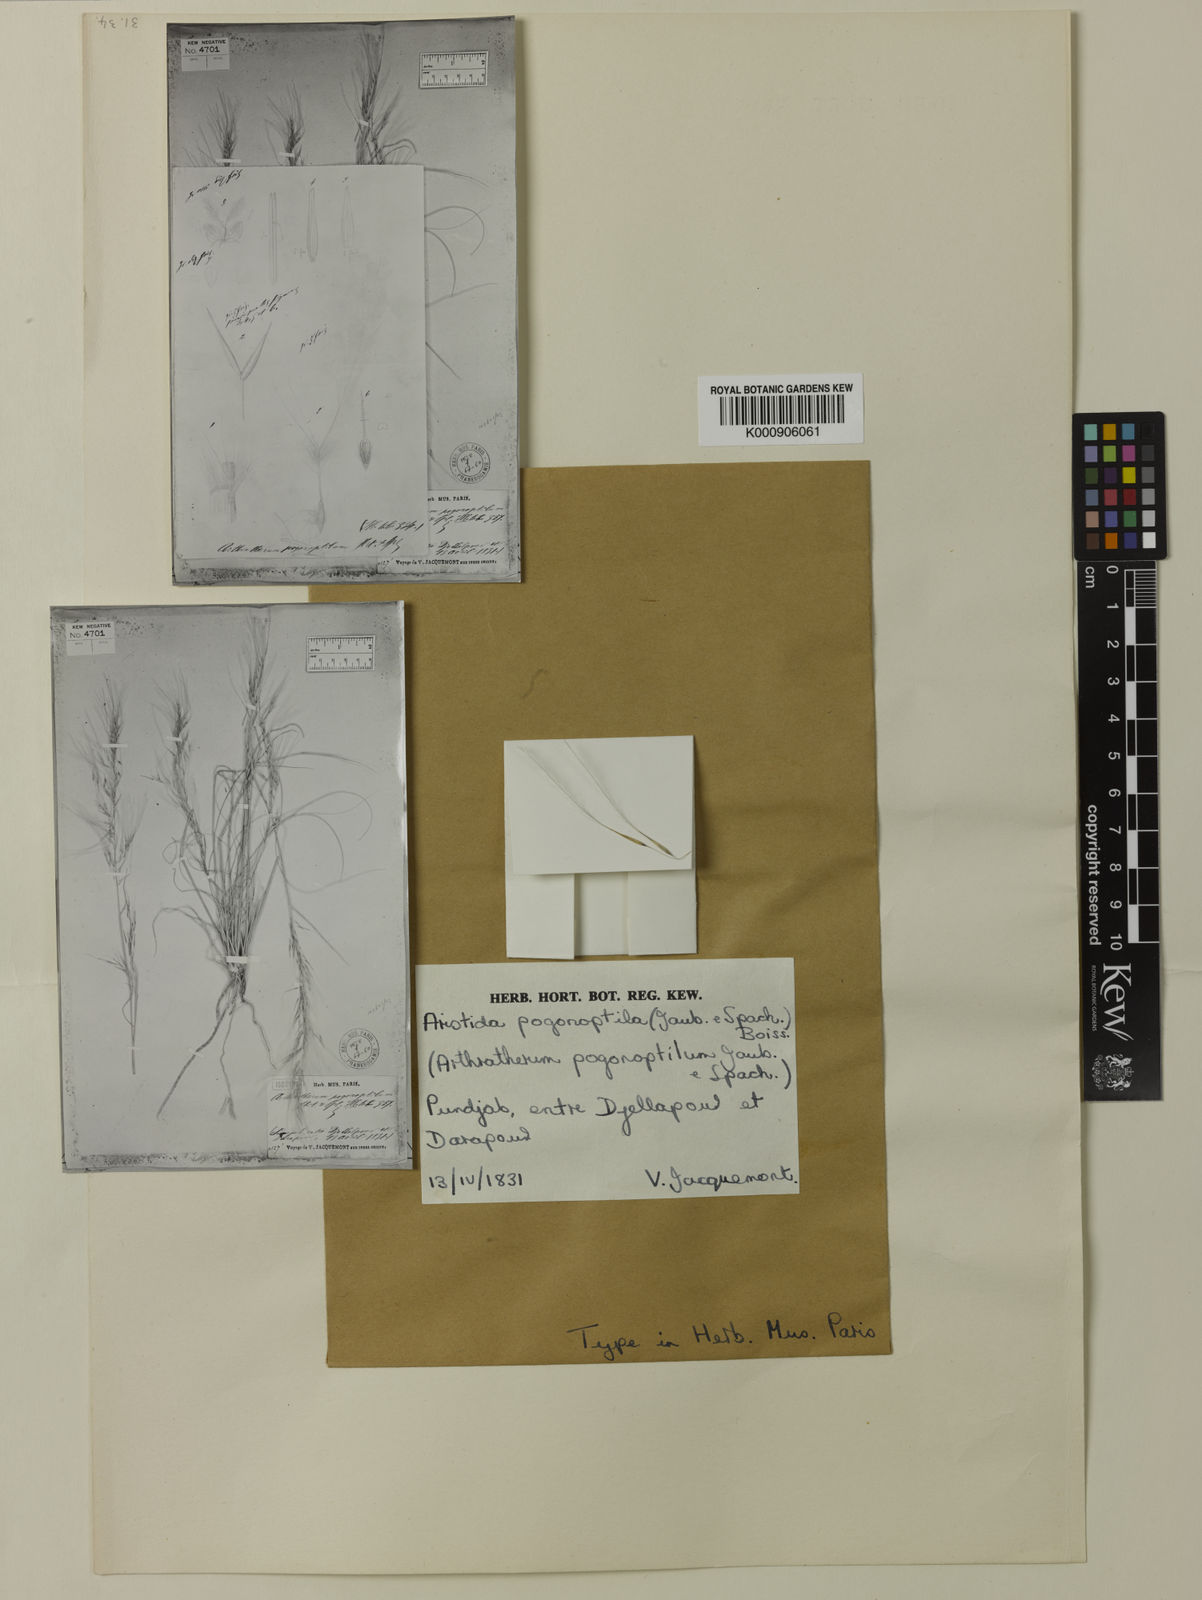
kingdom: Plantae
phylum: Tracheophyta
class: Liliopsida
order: Poales
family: Poaceae
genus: Stipagrostis
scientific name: Stipagrostis uniplumis
